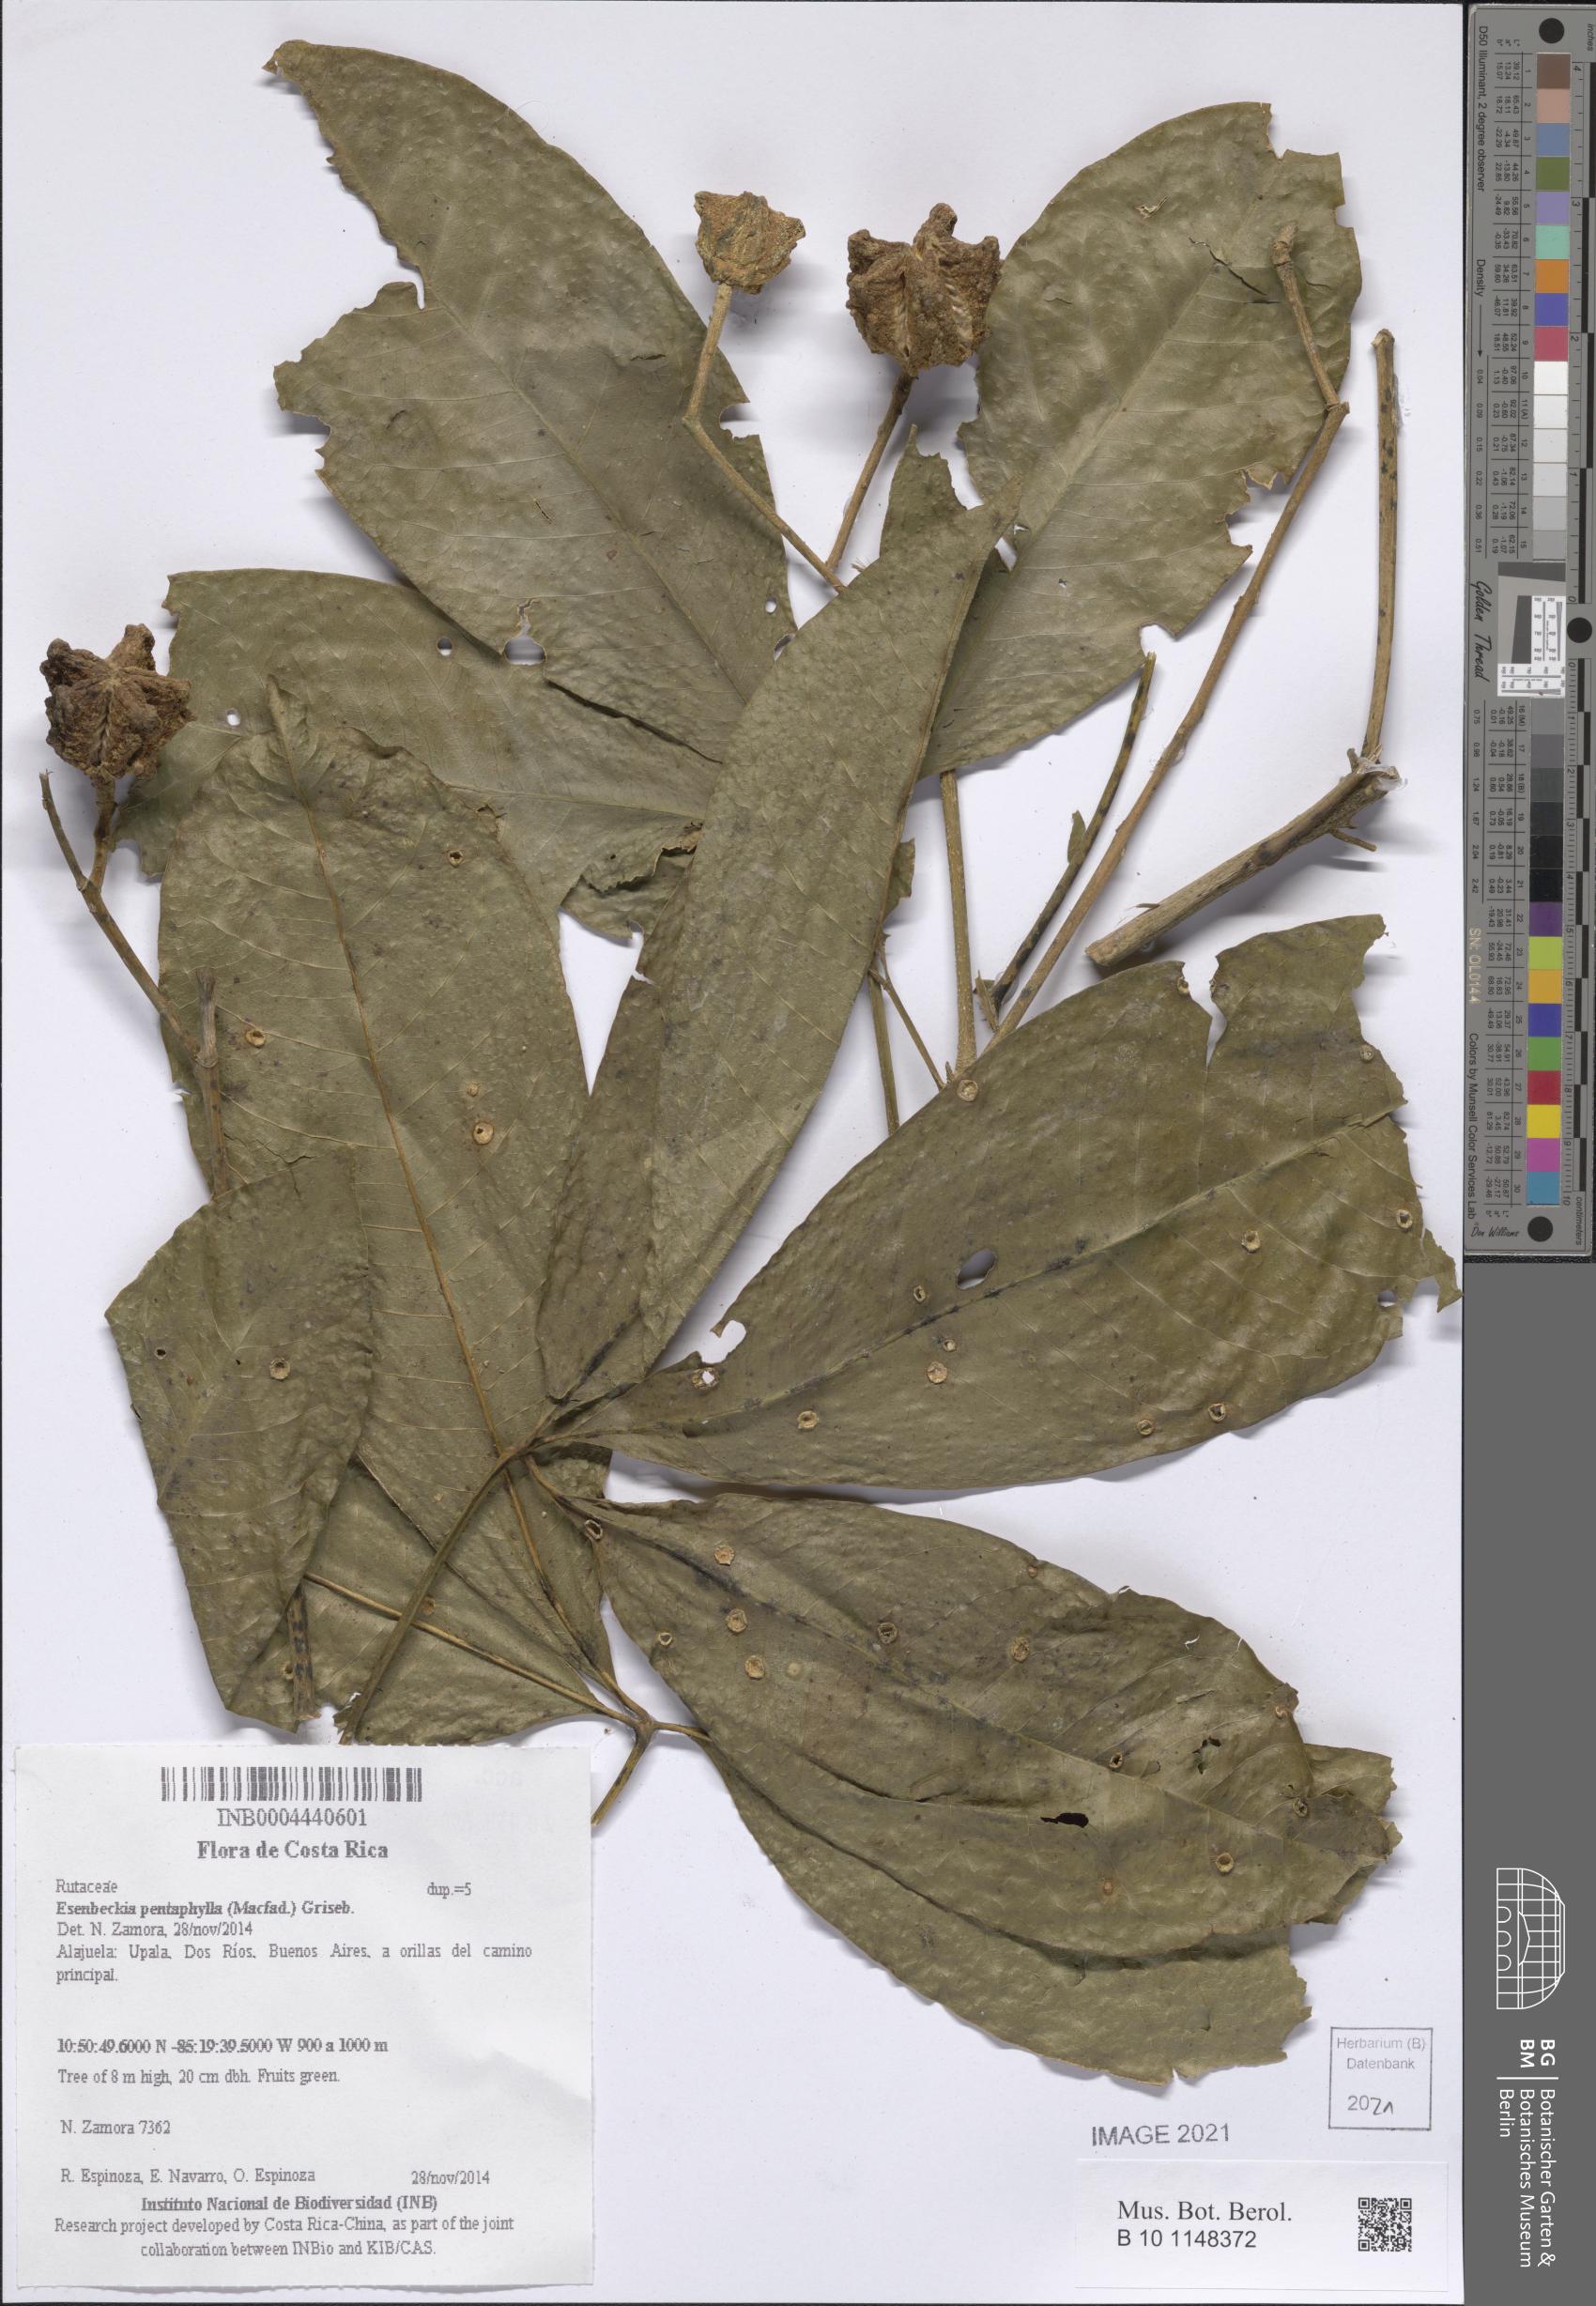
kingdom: Plantae
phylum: Tracheophyta
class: Magnoliopsida
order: Sapindales
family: Rutaceae
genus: Esenbeckia
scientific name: Esenbeckia pentaphylla
